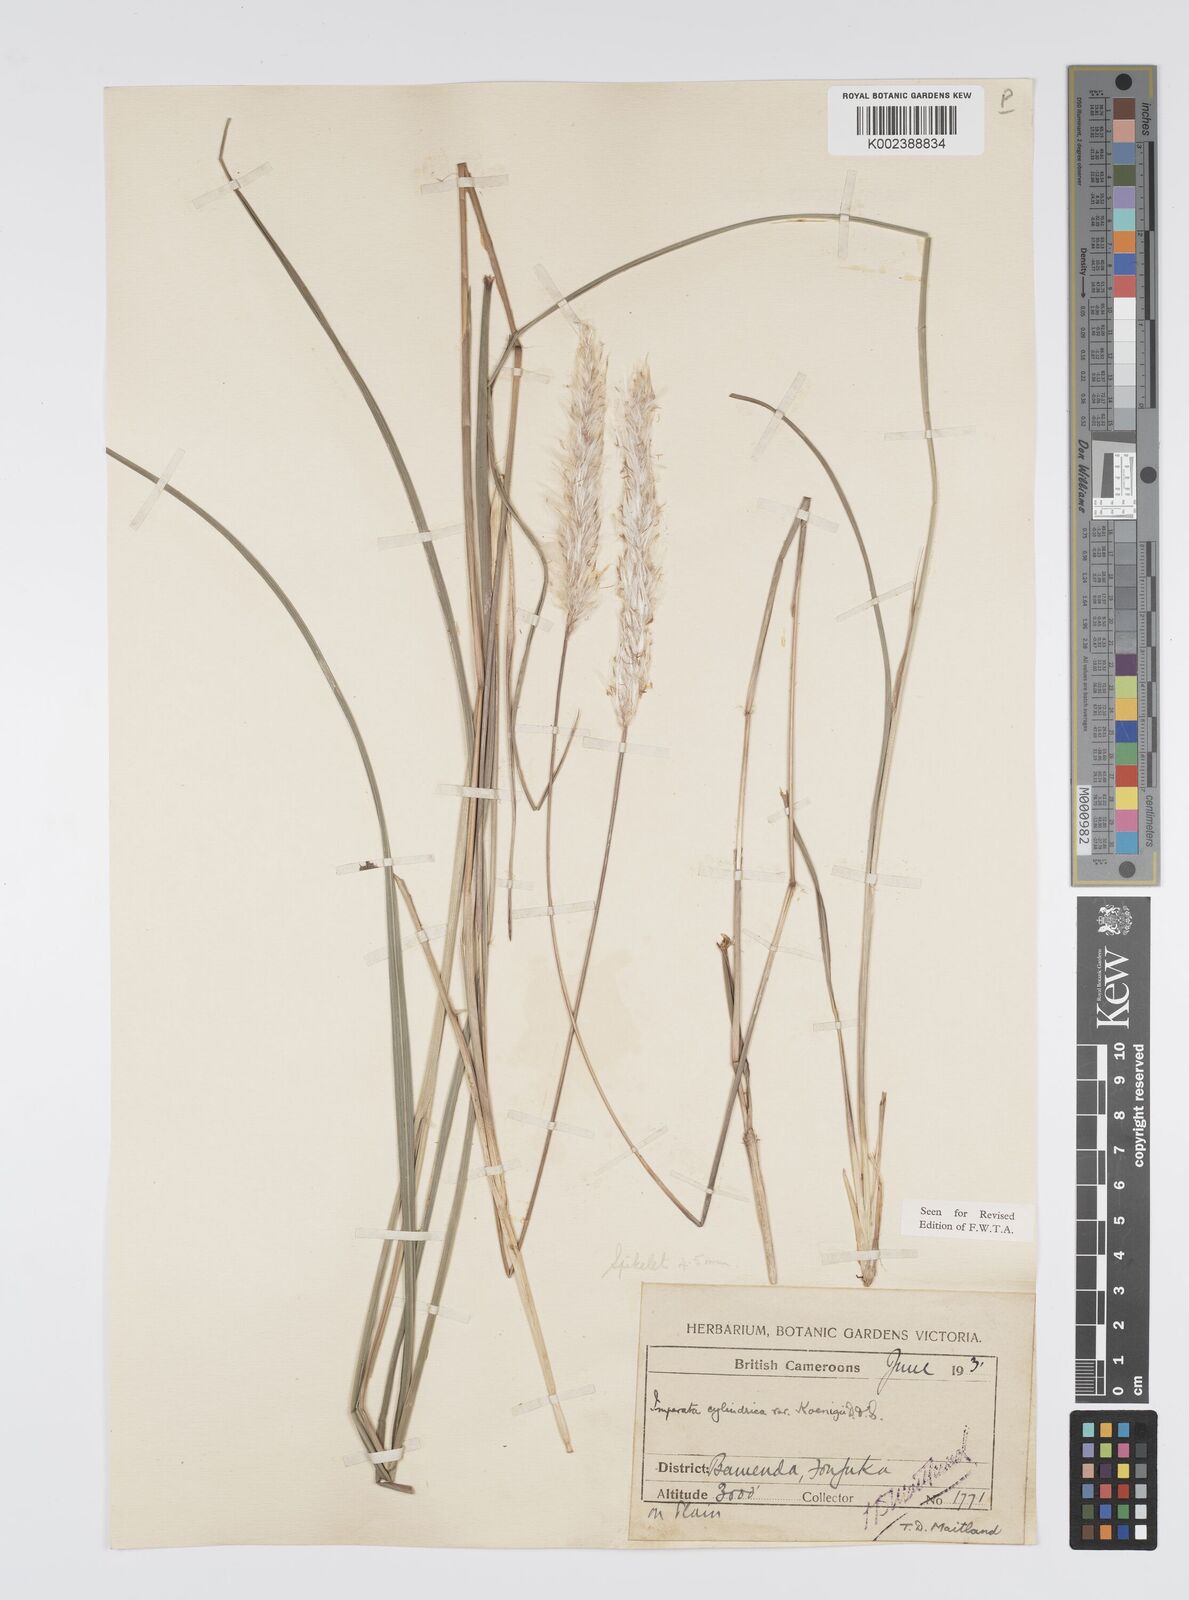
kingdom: Plantae
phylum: Tracheophyta
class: Liliopsida
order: Poales
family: Poaceae
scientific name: Poaceae
